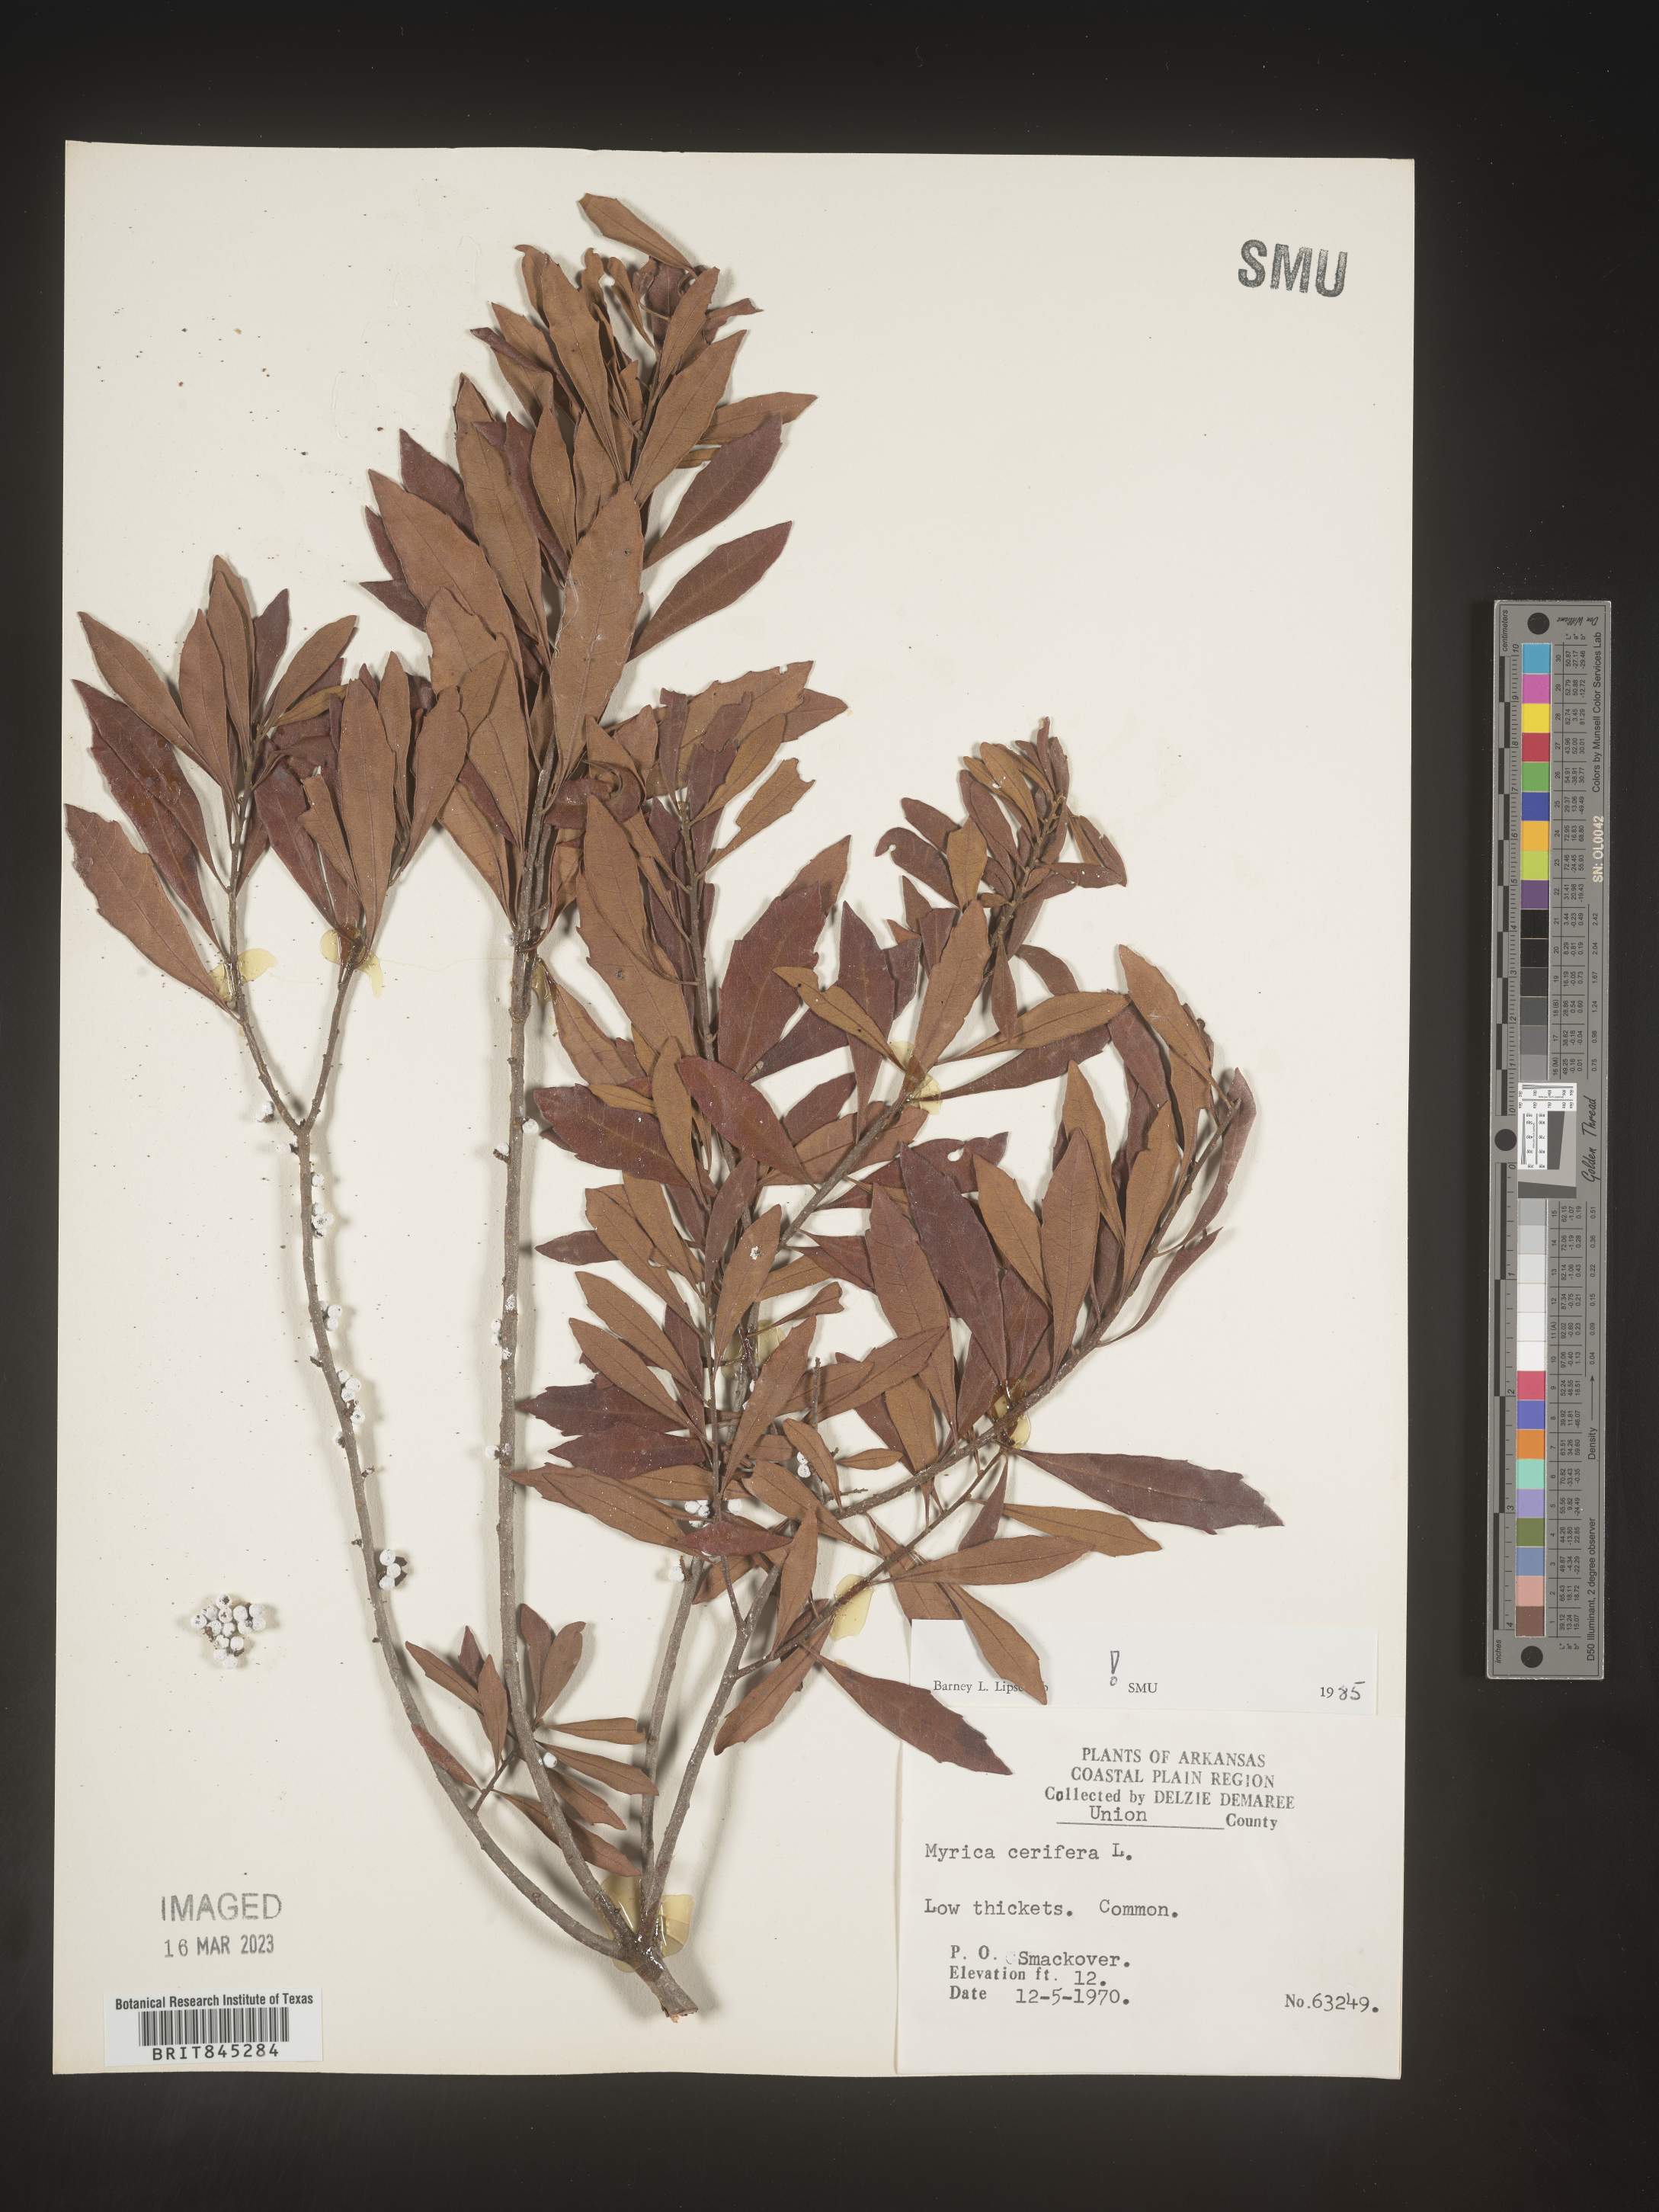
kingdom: Plantae
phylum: Tracheophyta
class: Magnoliopsida
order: Fagales
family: Myricaceae
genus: Morella
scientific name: Morella cerifera
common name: Wax myrtle
